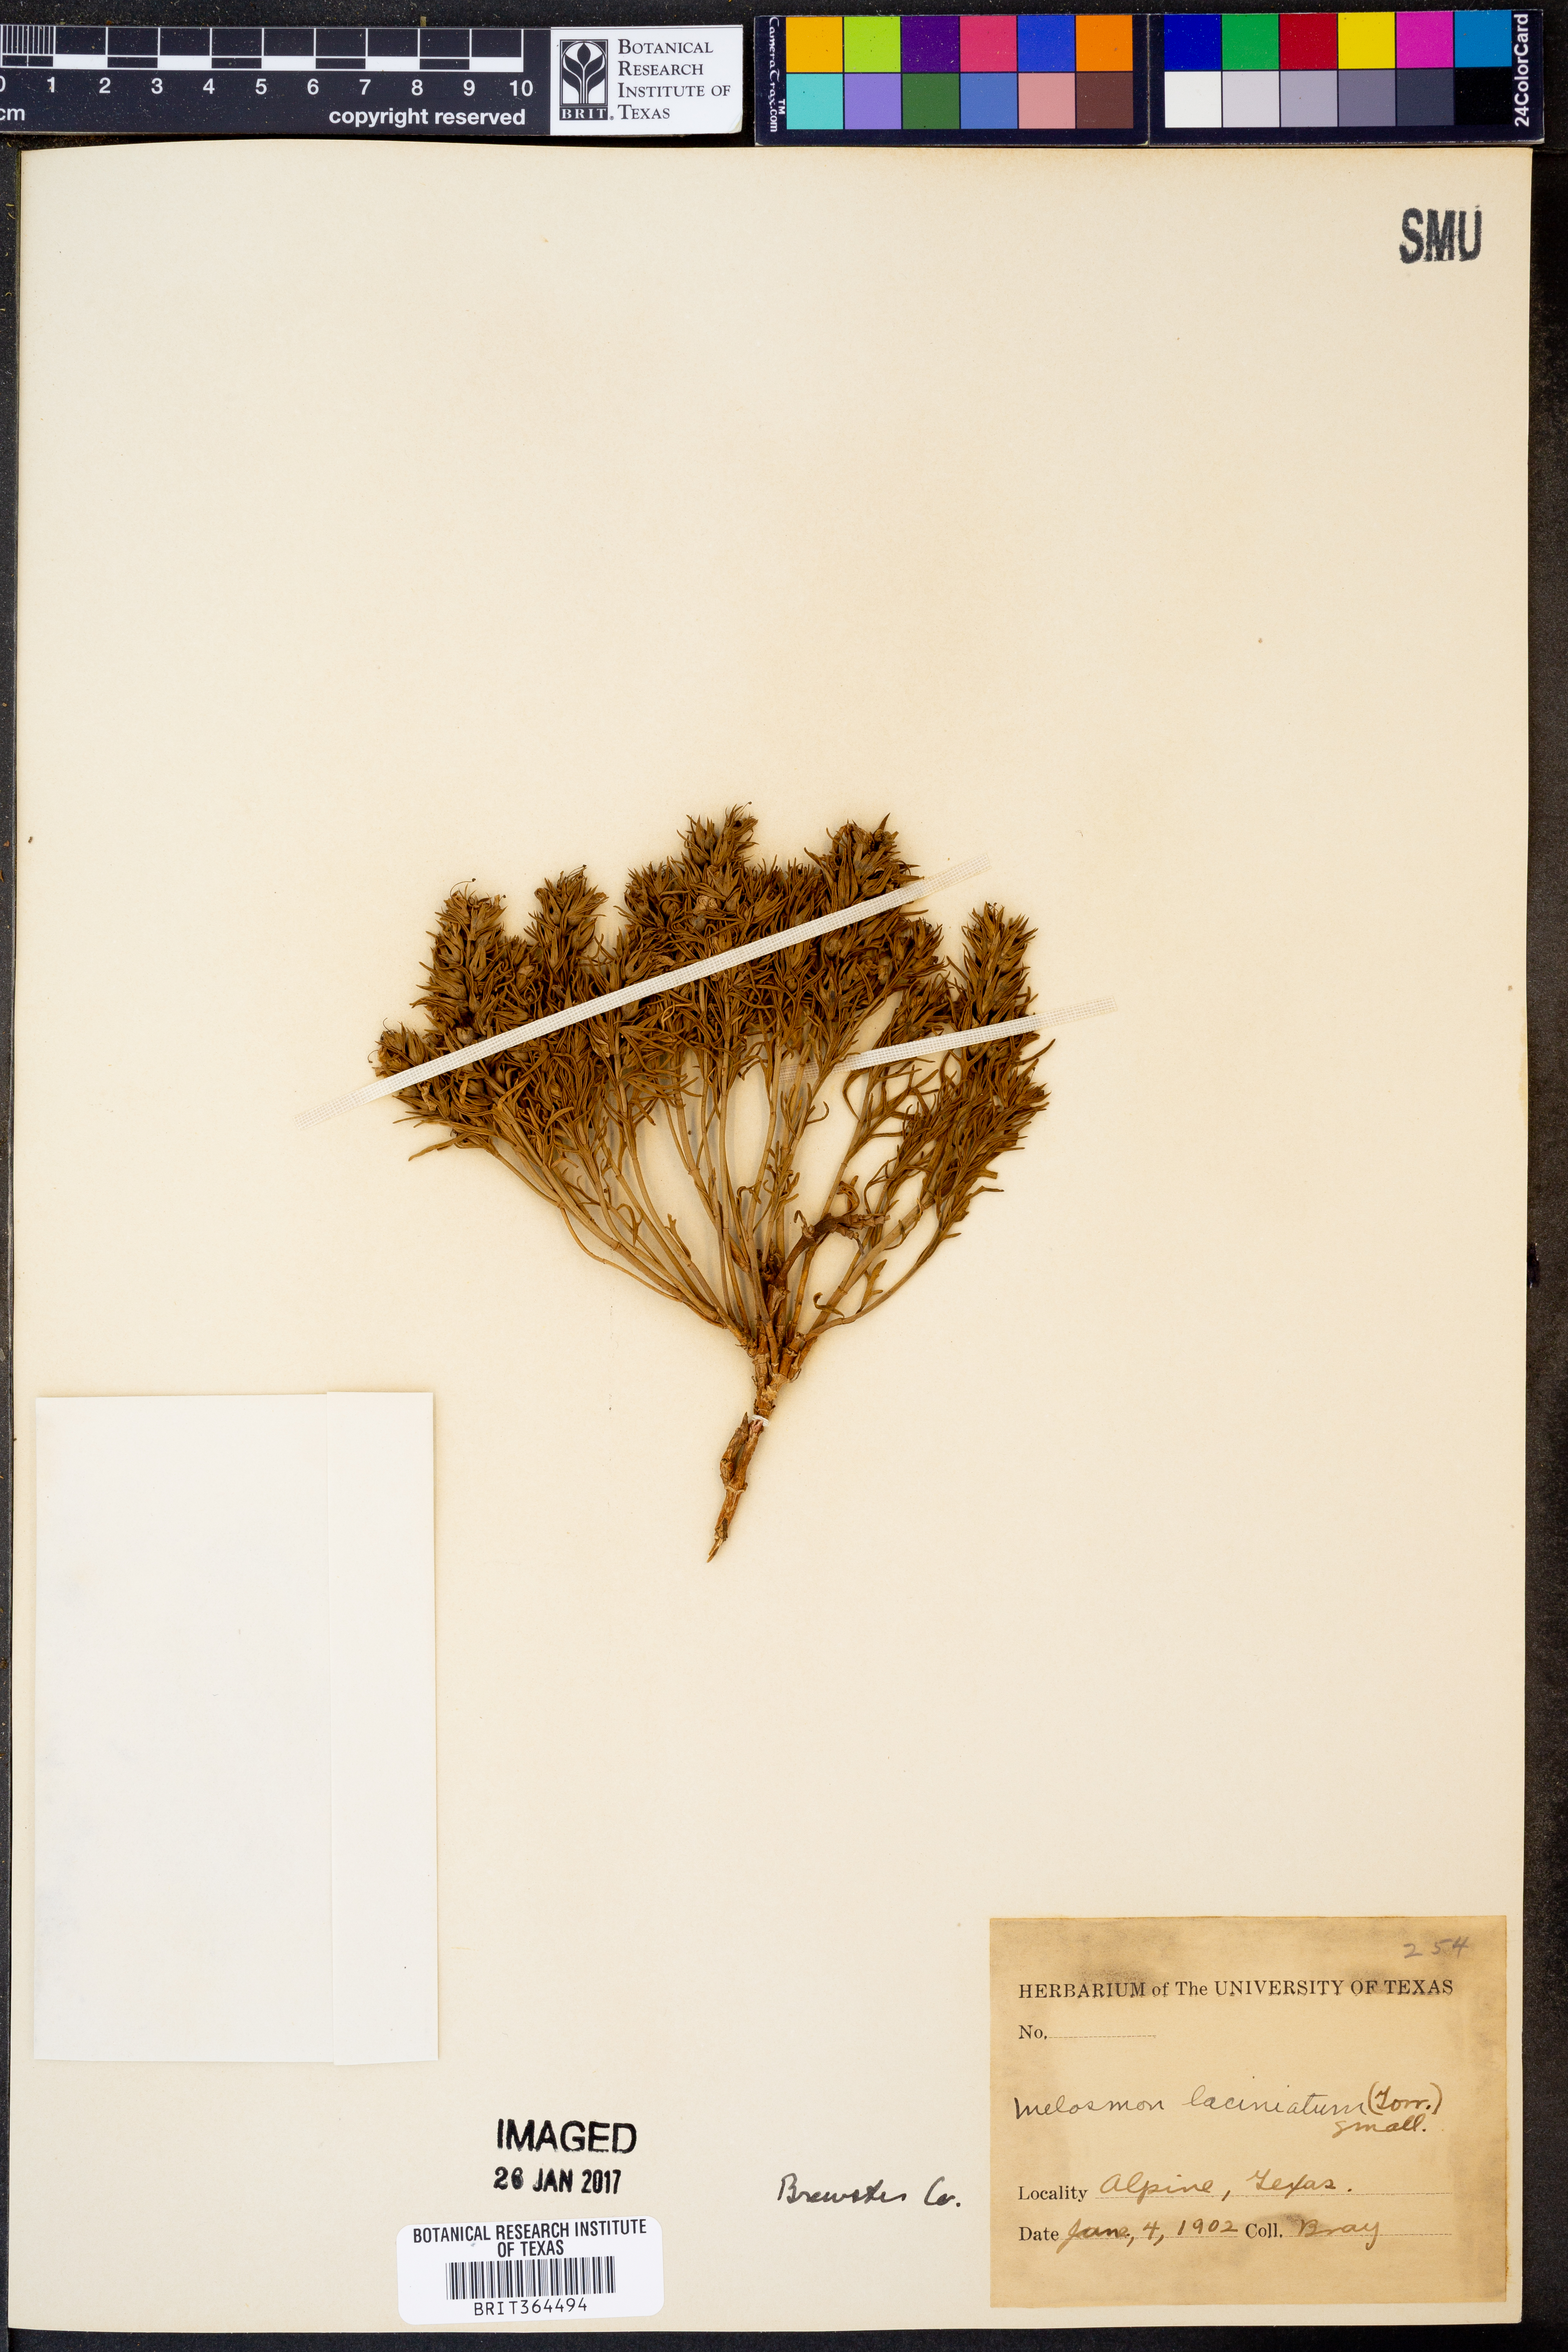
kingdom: Plantae
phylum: Tracheophyta
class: Magnoliopsida
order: Lamiales
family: Lamiaceae
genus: Teucrium
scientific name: Teucrium laciniatum
